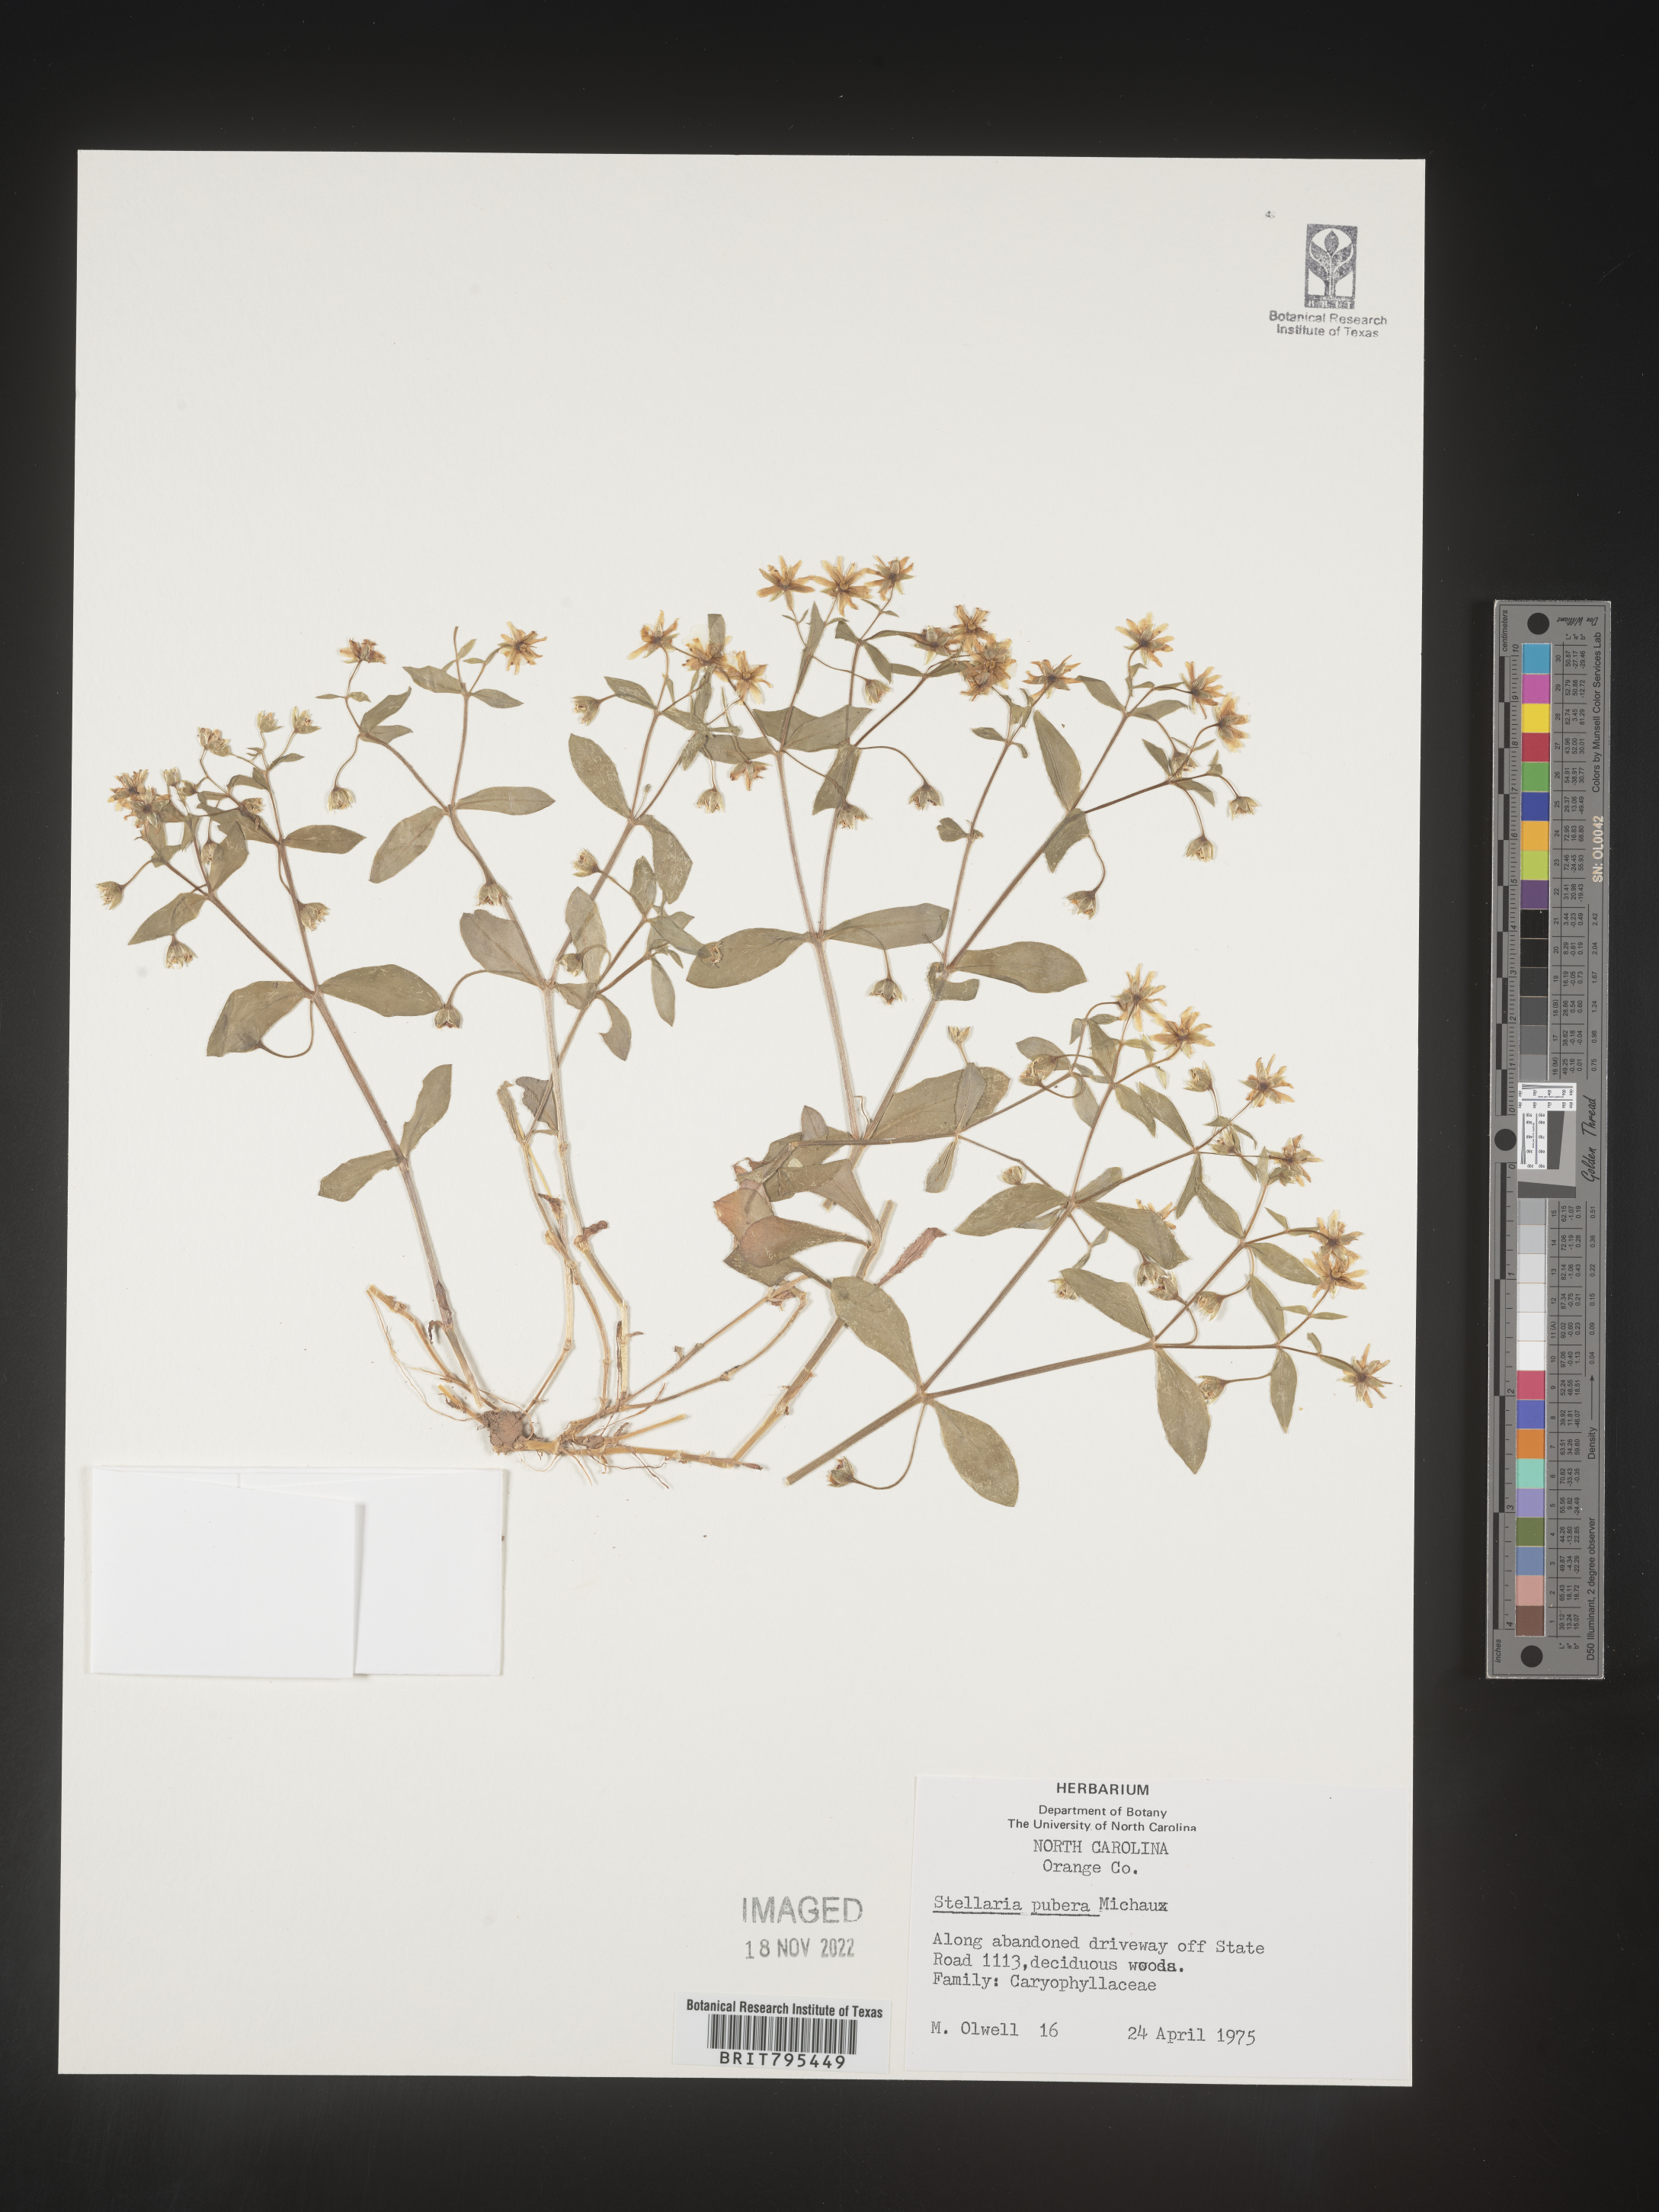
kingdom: Plantae
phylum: Tracheophyta
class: Magnoliopsida
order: Caryophyllales
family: Caryophyllaceae
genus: Stellaria
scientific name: Stellaria pubera
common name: Star chickweed
